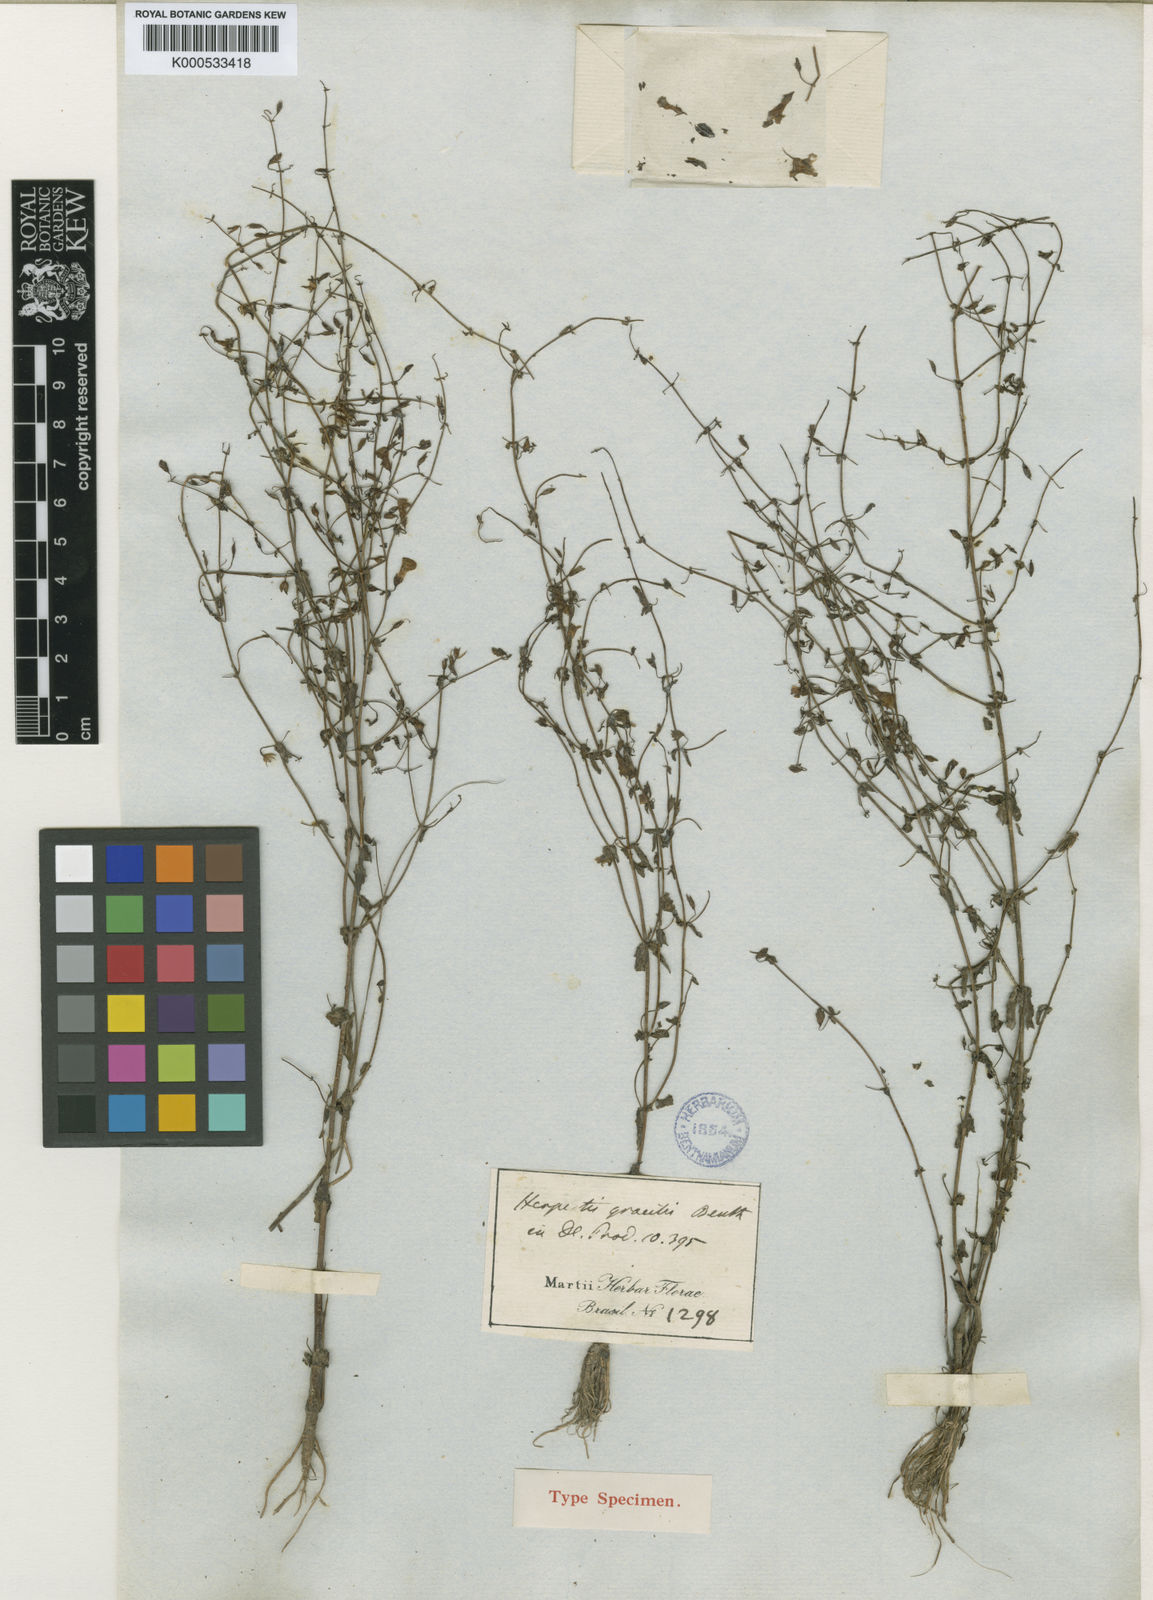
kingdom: Plantae
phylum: Tracheophyta
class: Magnoliopsida
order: Lamiales
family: Plantaginaceae
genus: Bacopa
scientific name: Bacopa gracilis
